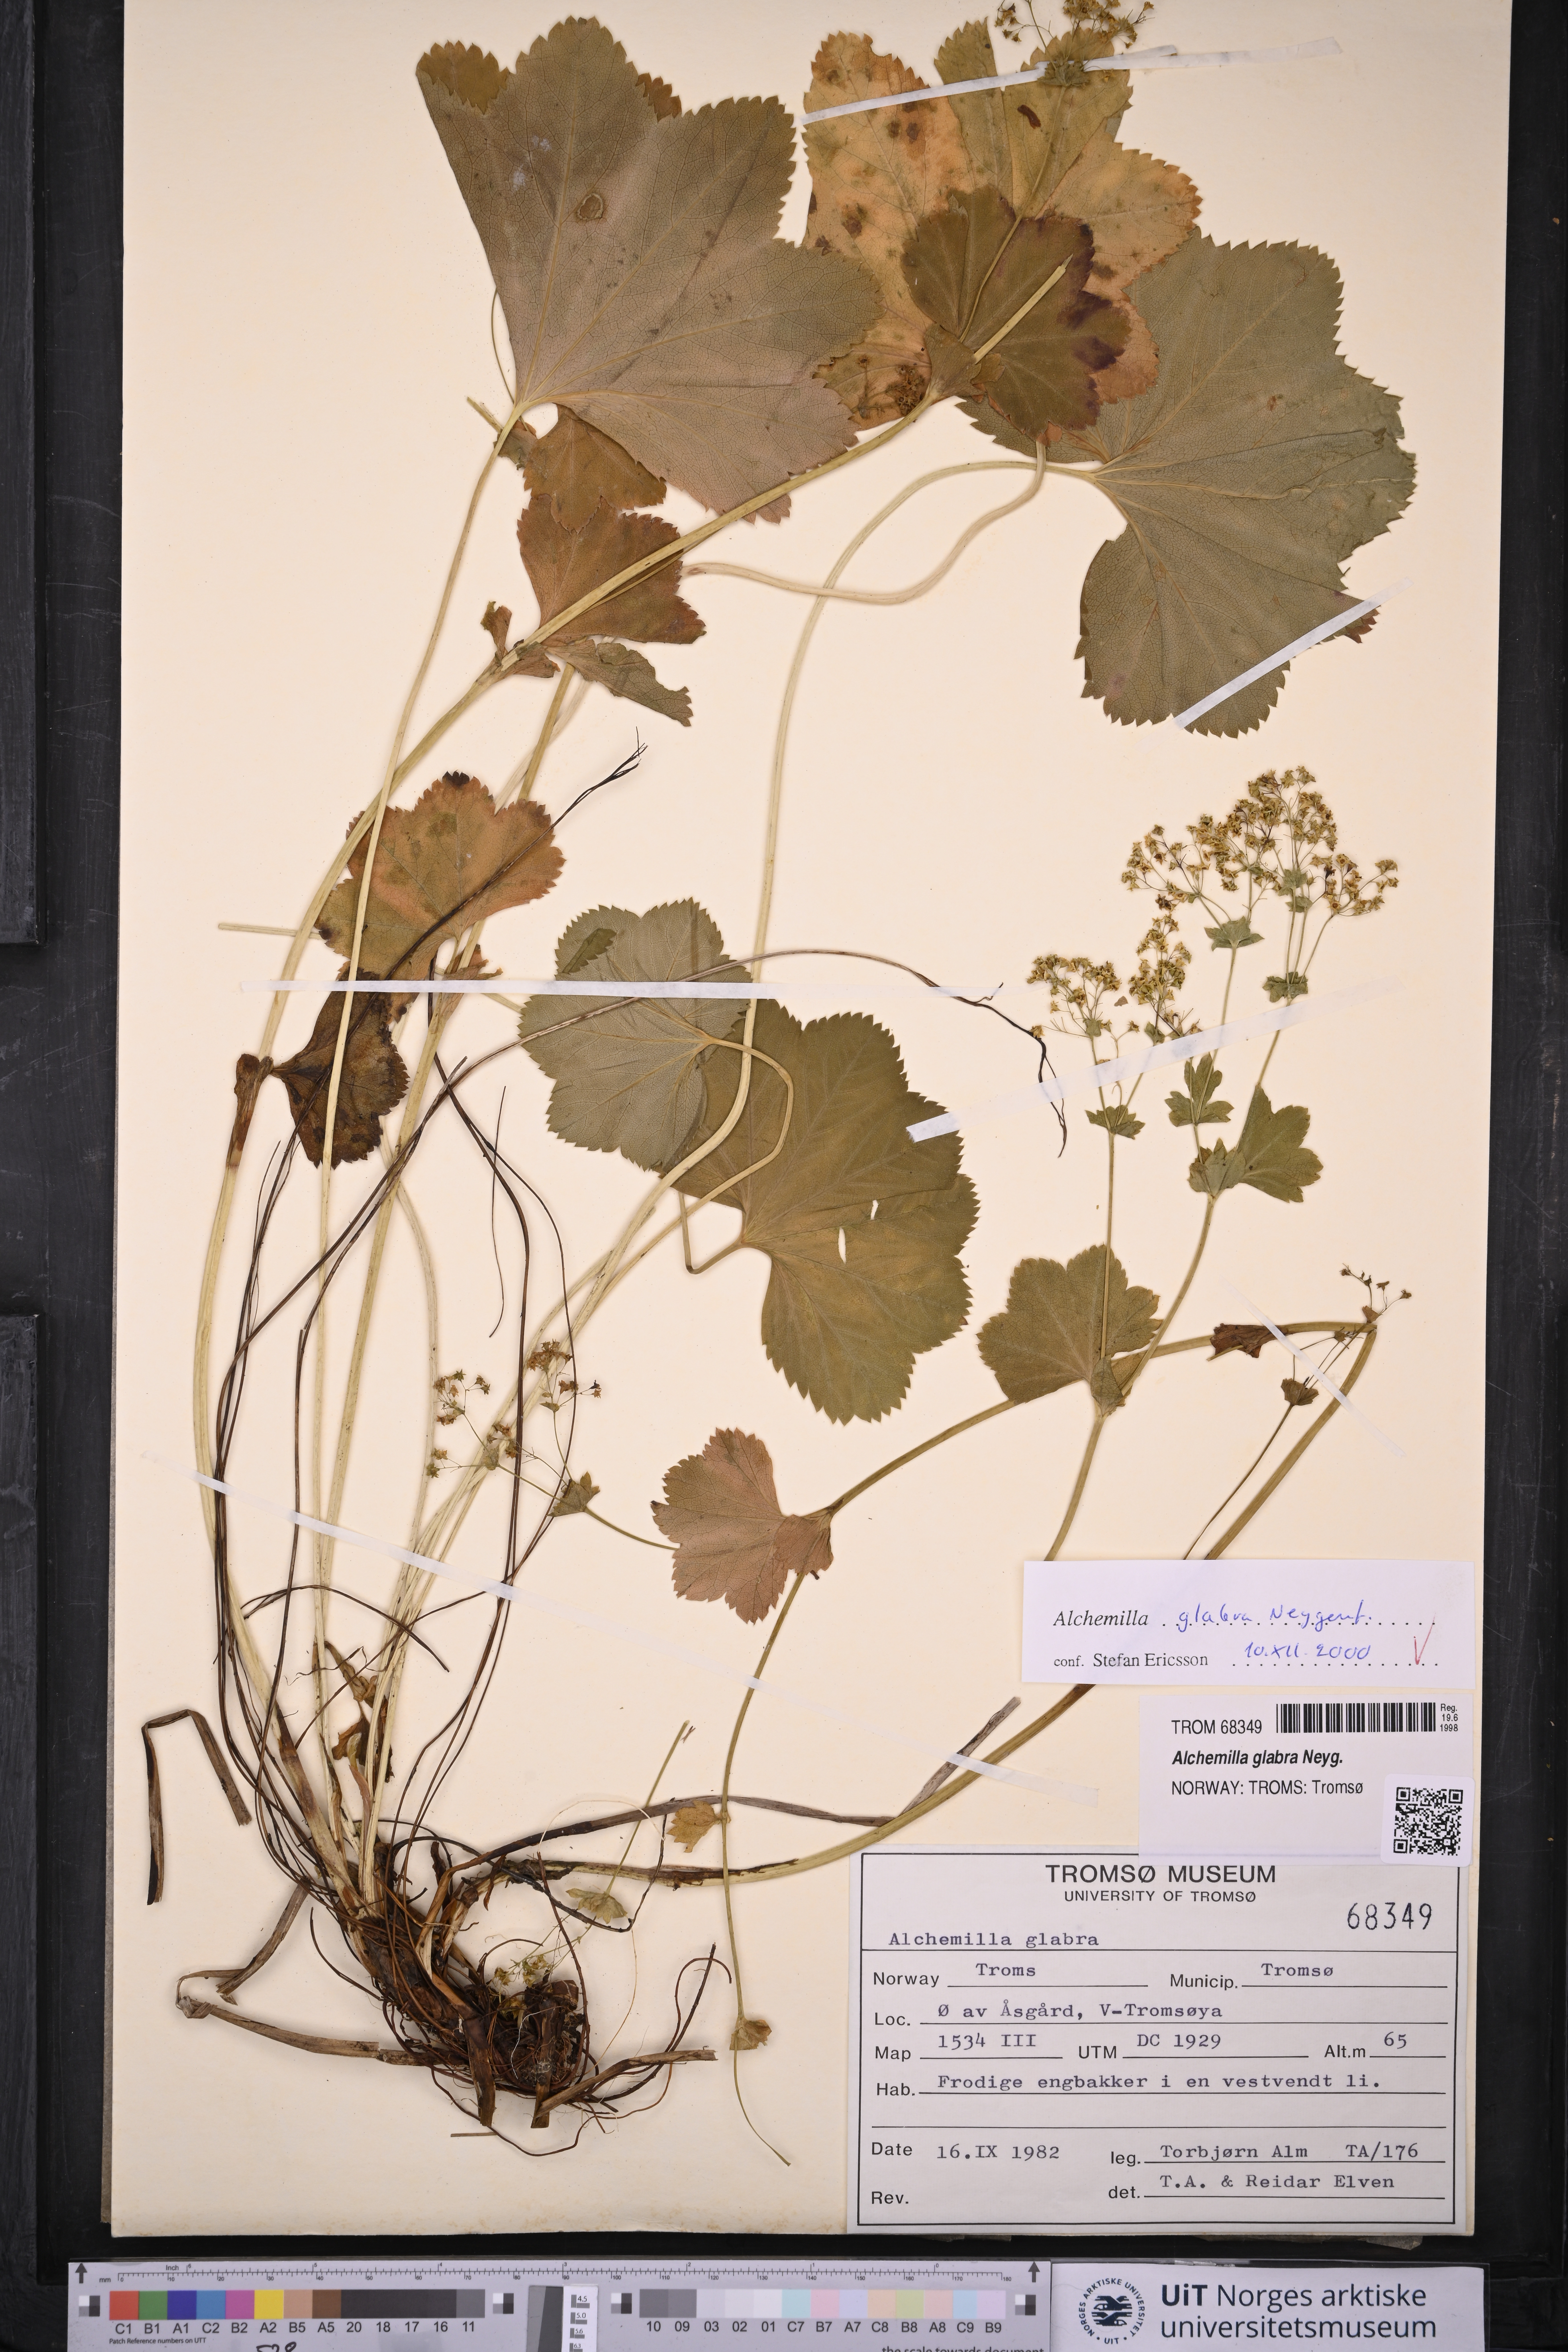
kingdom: Plantae
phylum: Tracheophyta
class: Magnoliopsida
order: Rosales
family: Rosaceae
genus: Alchemilla
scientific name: Alchemilla glabra
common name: Smooth lady's-mantle
